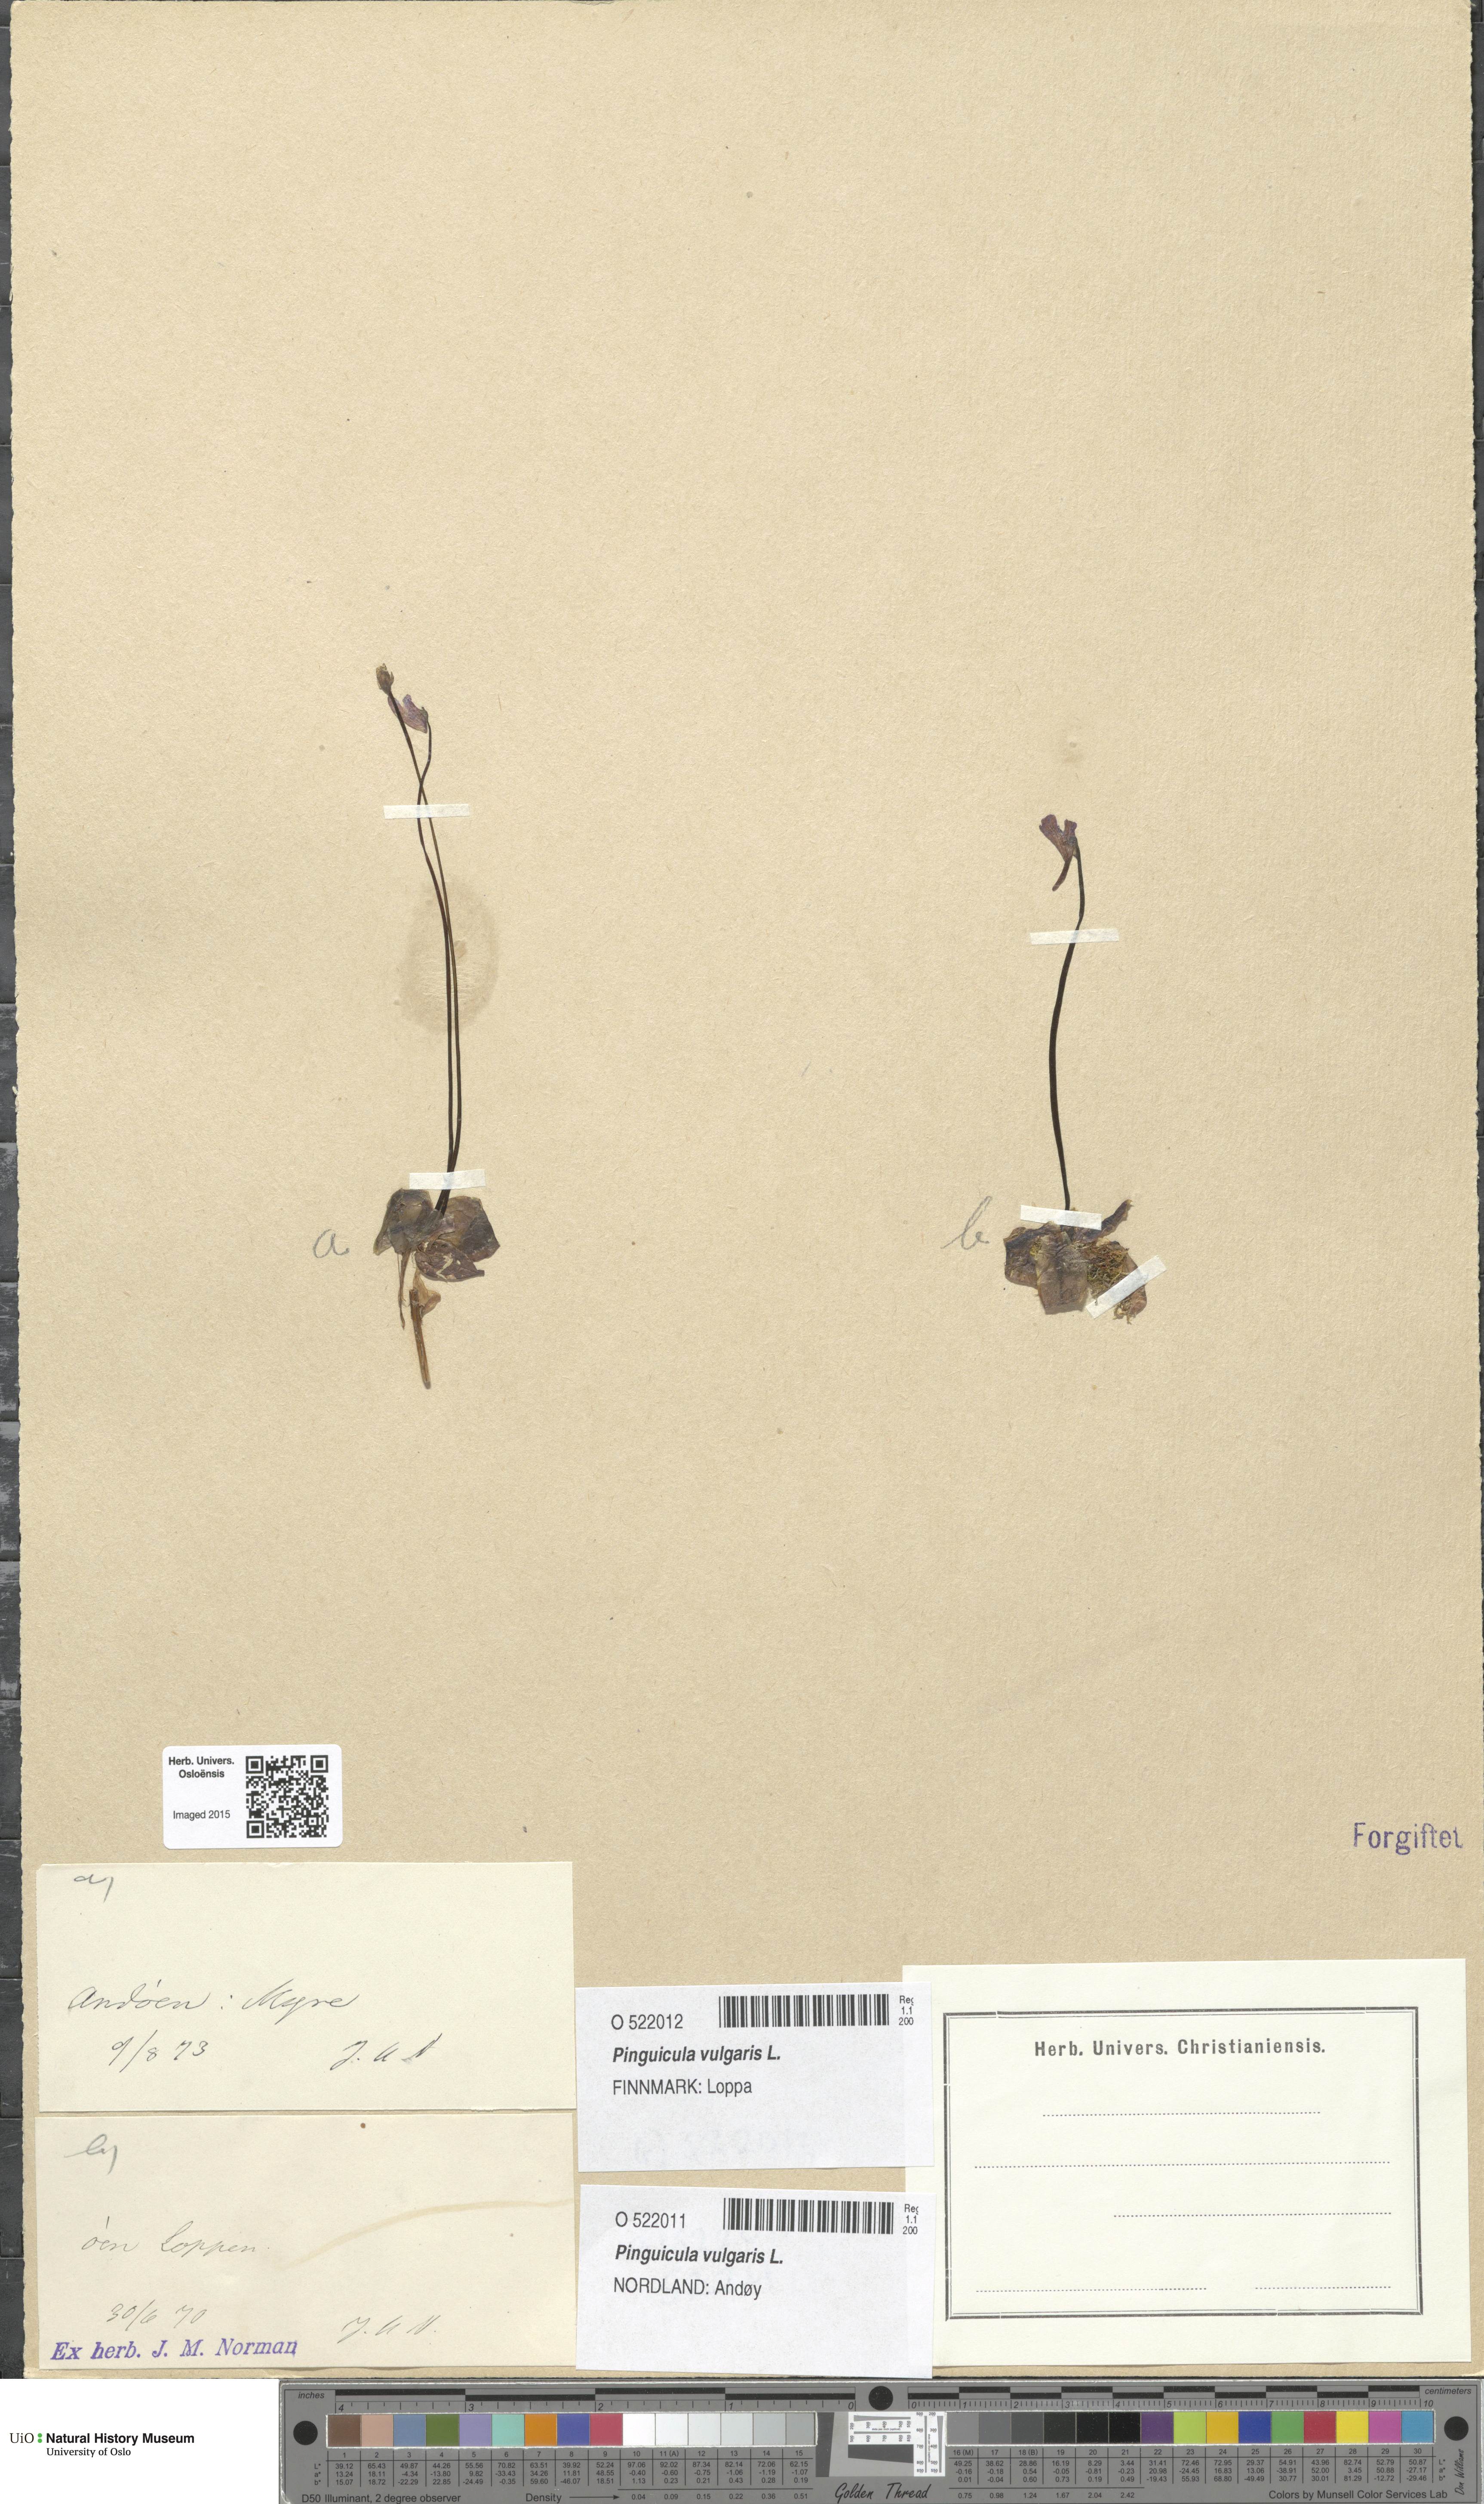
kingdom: Plantae
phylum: Tracheophyta
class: Magnoliopsida
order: Lamiales
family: Lentibulariaceae
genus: Pinguicula
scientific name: Pinguicula vulgaris
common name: Common butterwort
